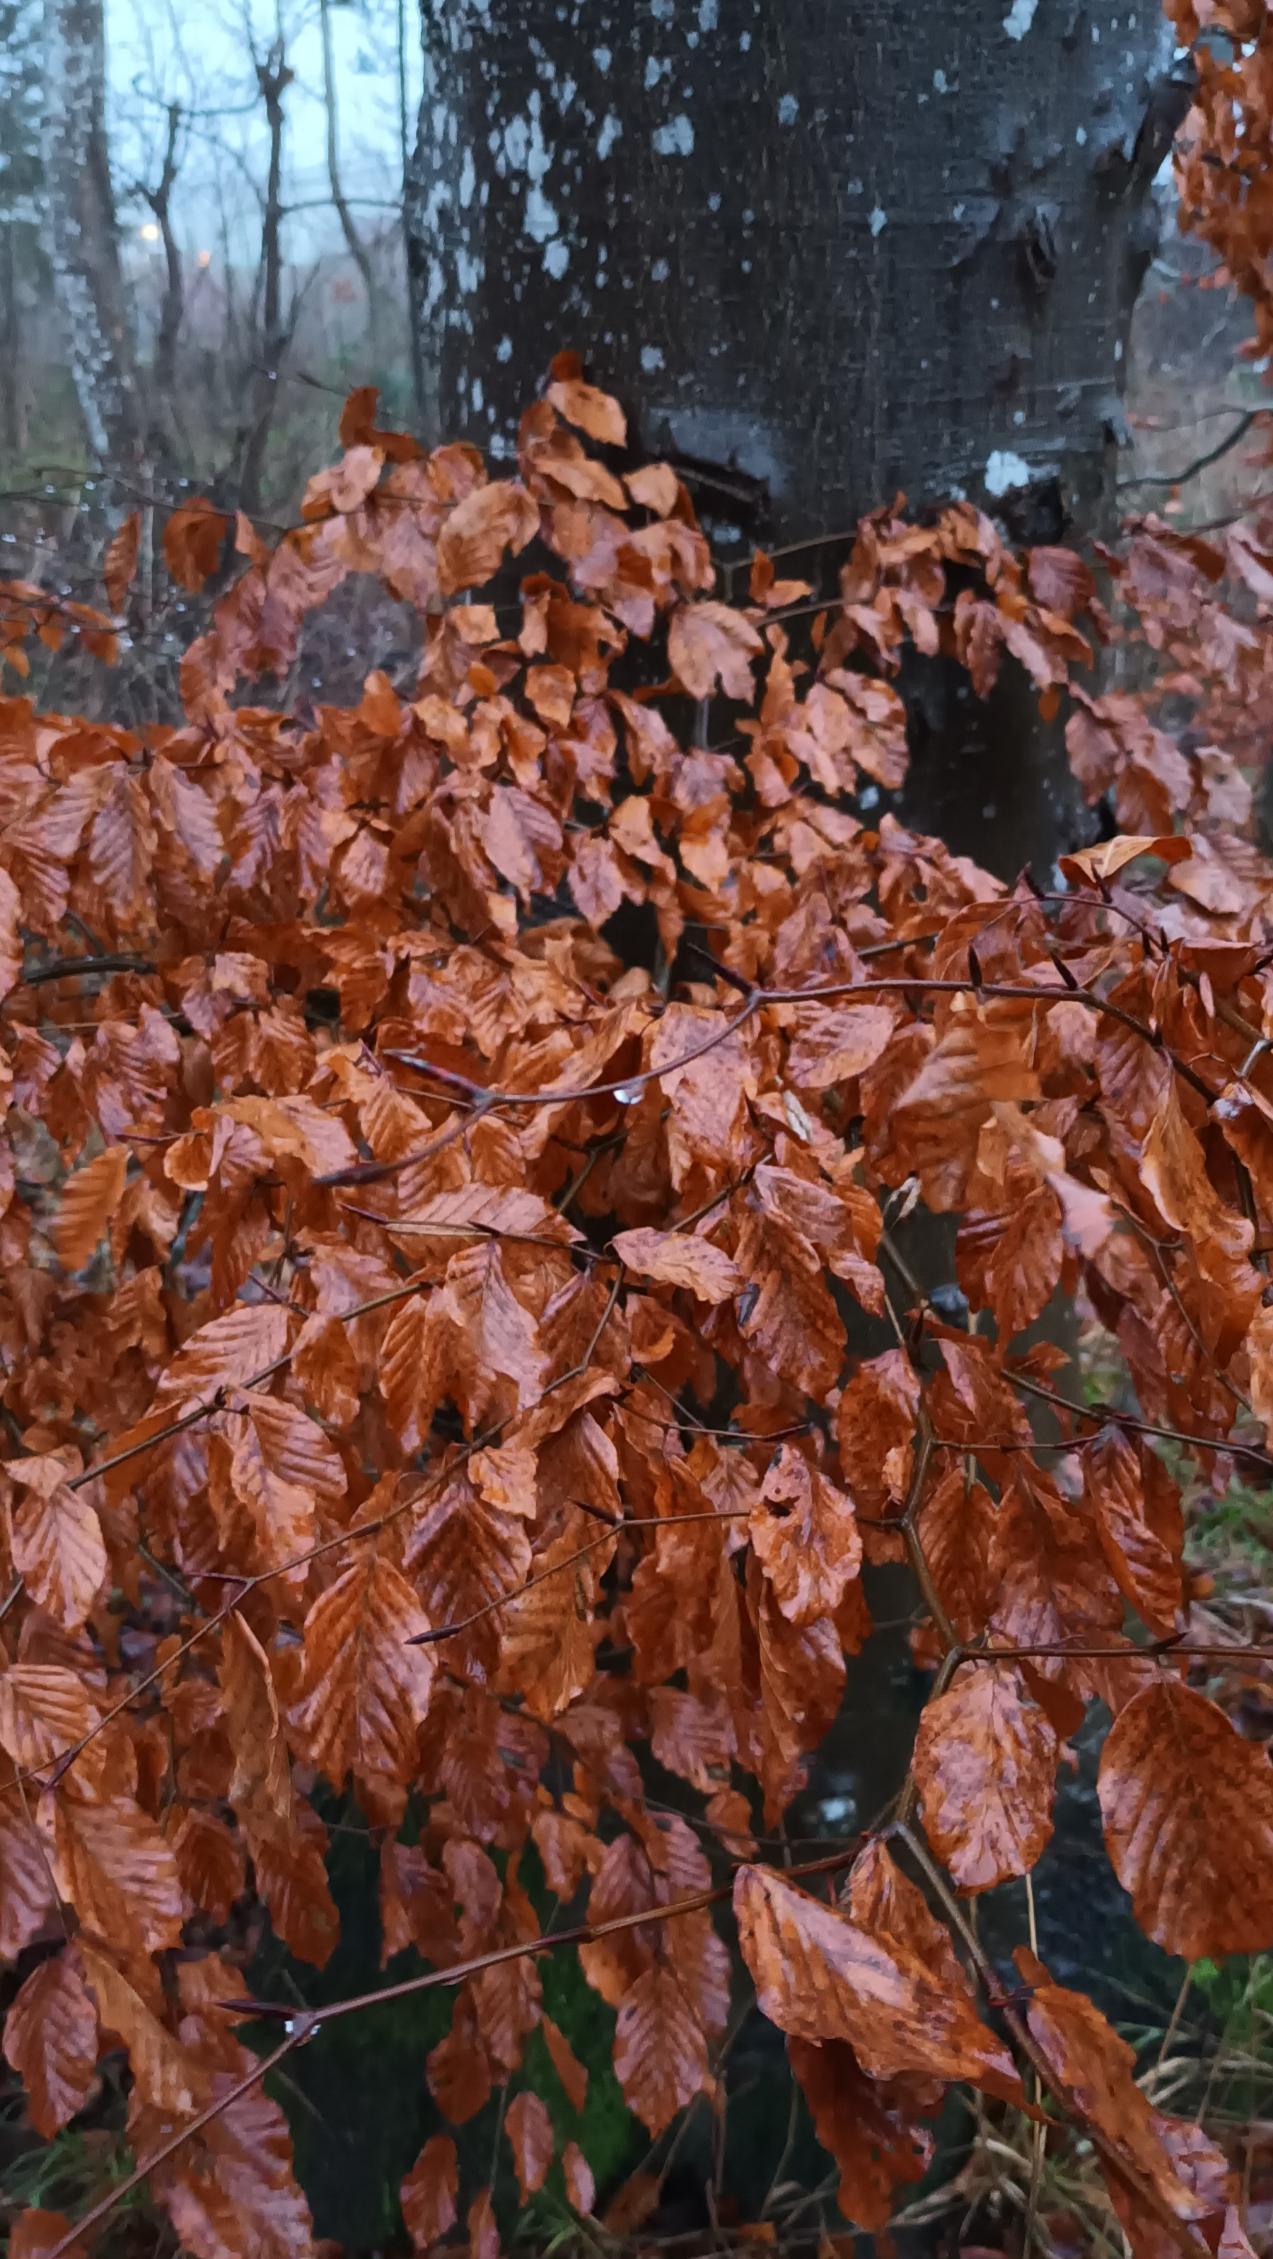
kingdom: Plantae
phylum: Tracheophyta
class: Magnoliopsida
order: Fagales
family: Fagaceae
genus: Fagus
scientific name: Fagus sylvatica
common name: Bøg
